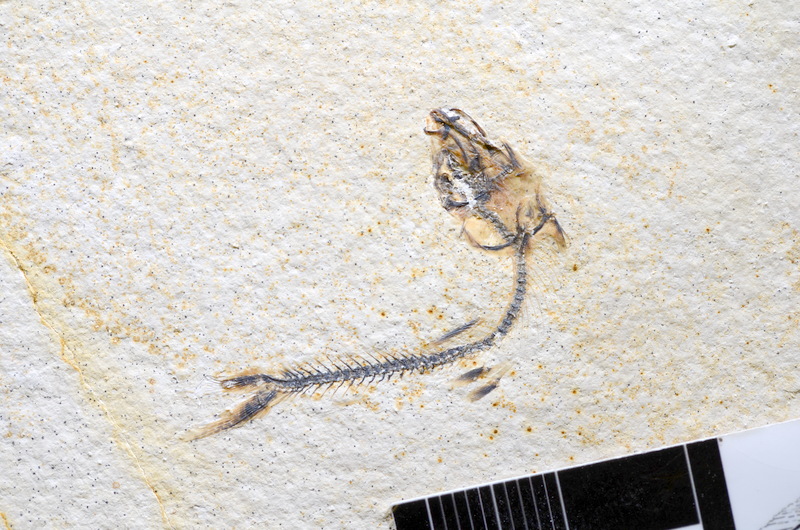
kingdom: Animalia
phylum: Chordata
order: Salmoniformes
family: Orthogonikleithridae
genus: Orthogonikleithrus
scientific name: Orthogonikleithrus hoelli
